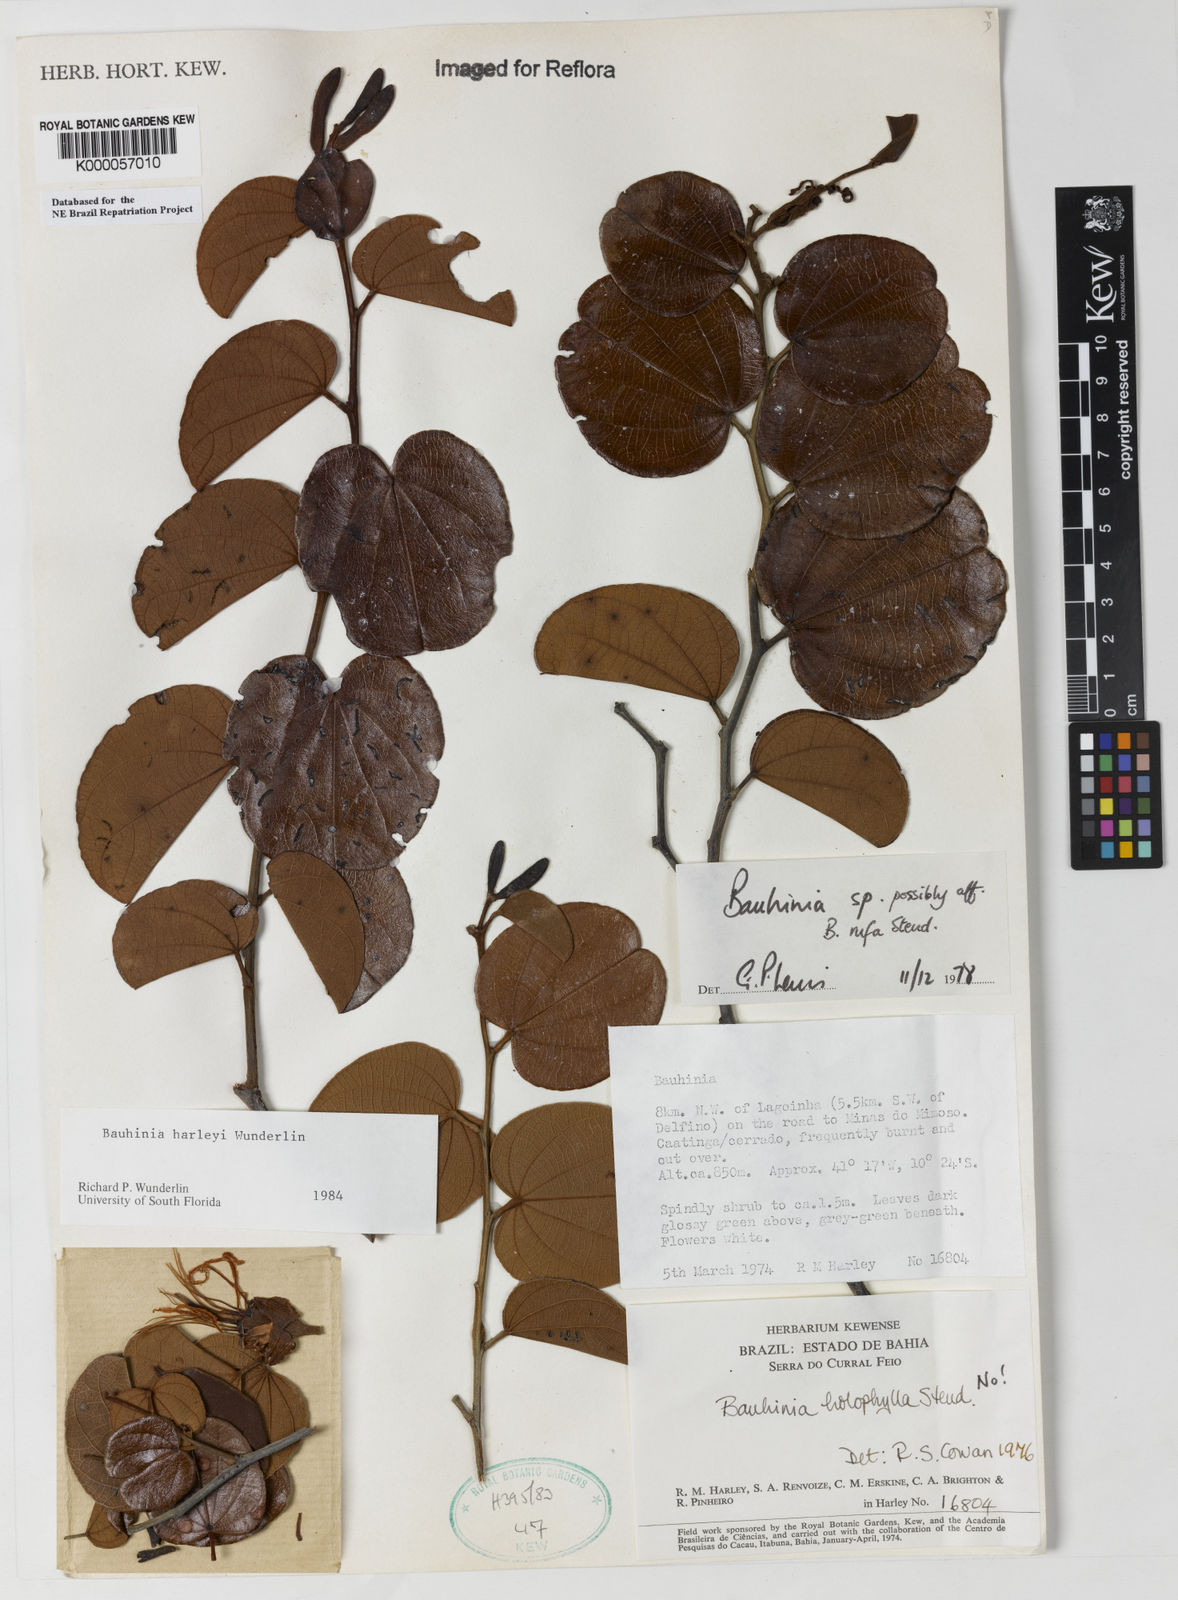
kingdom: Plantae
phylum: Tracheophyta
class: Magnoliopsida
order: Fabales
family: Fabaceae
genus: Bauhinia
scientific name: Bauhinia
